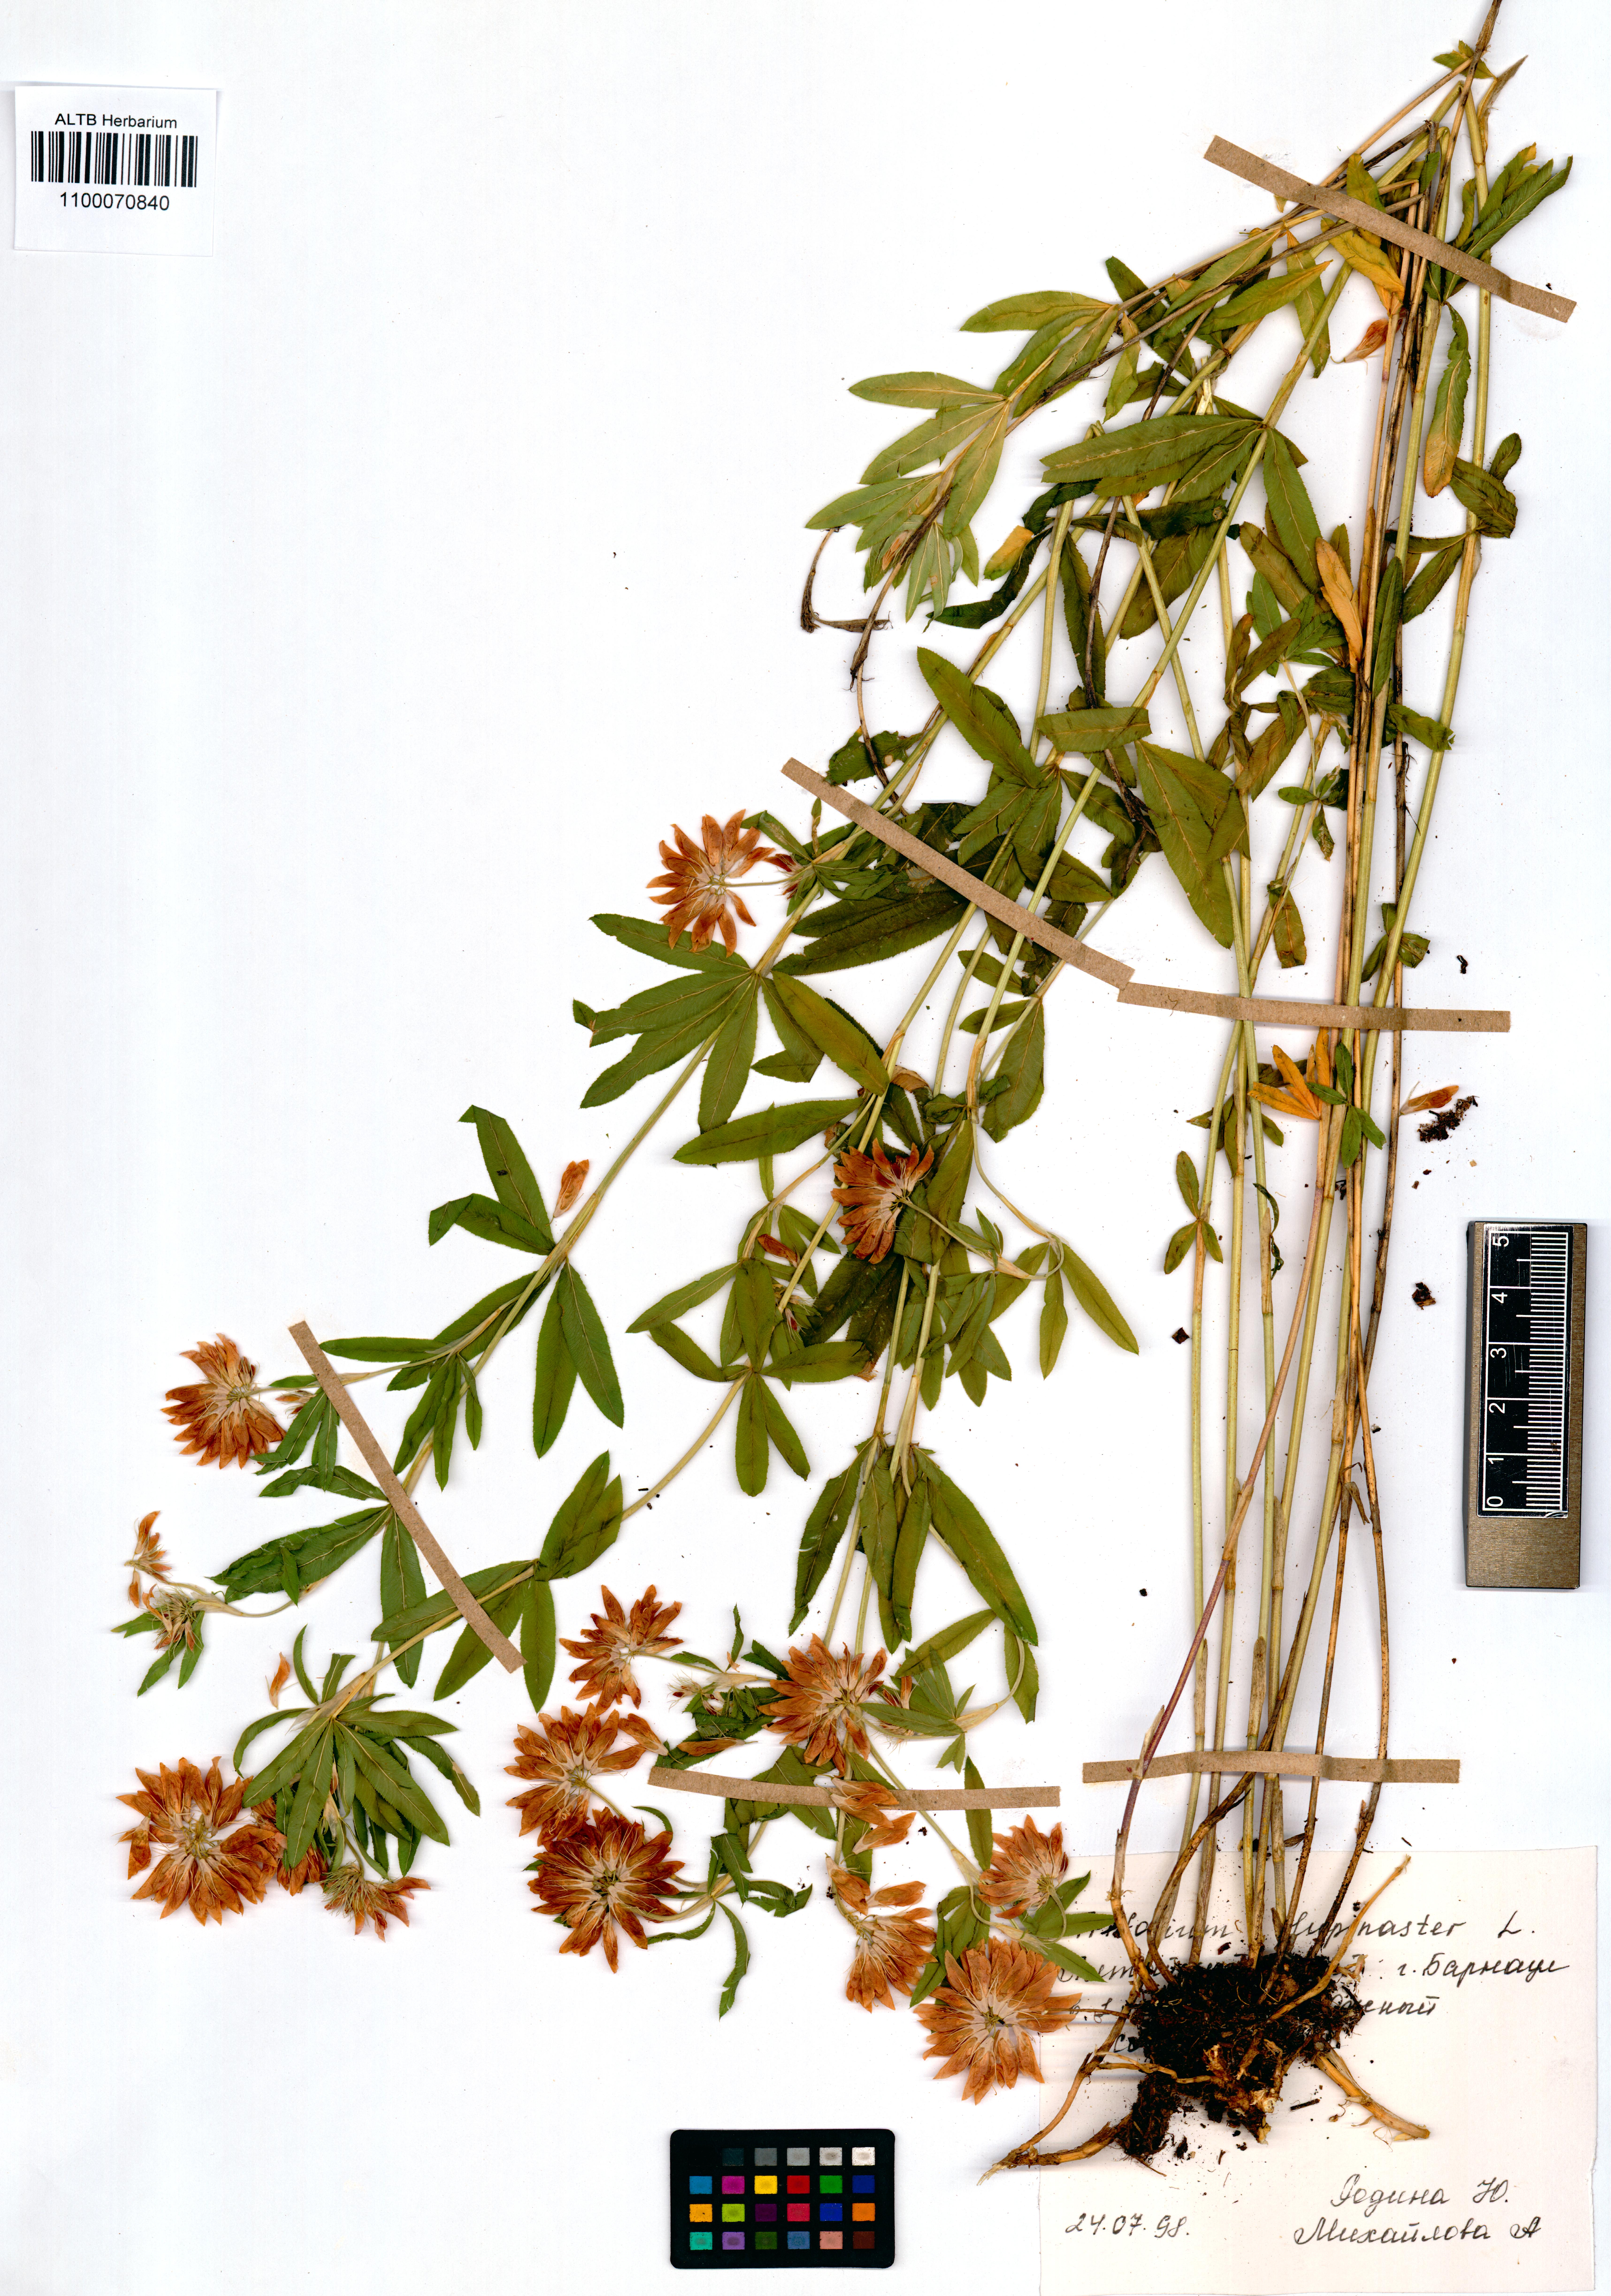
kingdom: Plantae
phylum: Tracheophyta
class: Magnoliopsida
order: Fabales
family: Fabaceae
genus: Trifolium
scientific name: Trifolium lupinaster
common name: Lupine clover
